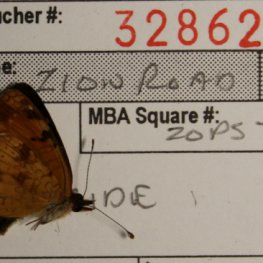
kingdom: Animalia
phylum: Arthropoda
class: Insecta
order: Lepidoptera
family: Nymphalidae
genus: Phyciodes
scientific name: Phyciodes tharos
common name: Northern Crescent
